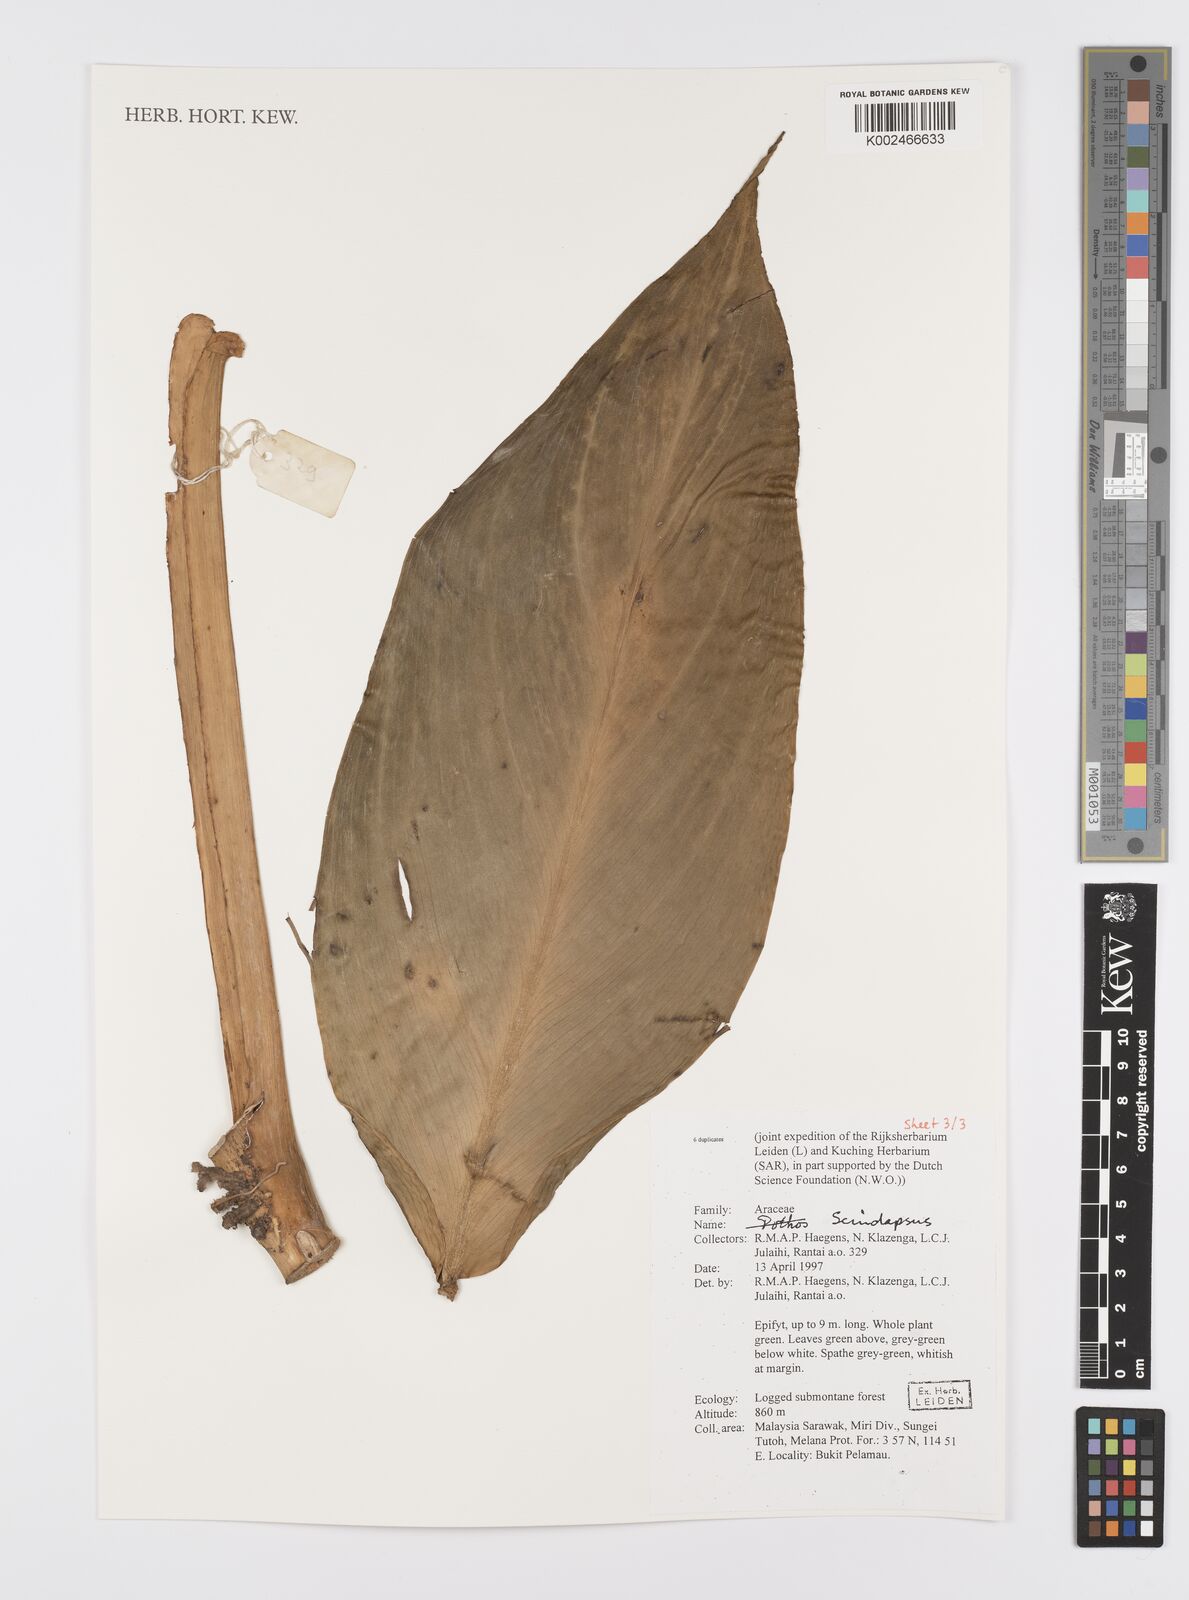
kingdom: Plantae
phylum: Tracheophyta
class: Liliopsida
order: Alismatales
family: Araceae
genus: Scindapsus
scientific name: Scindapsus
